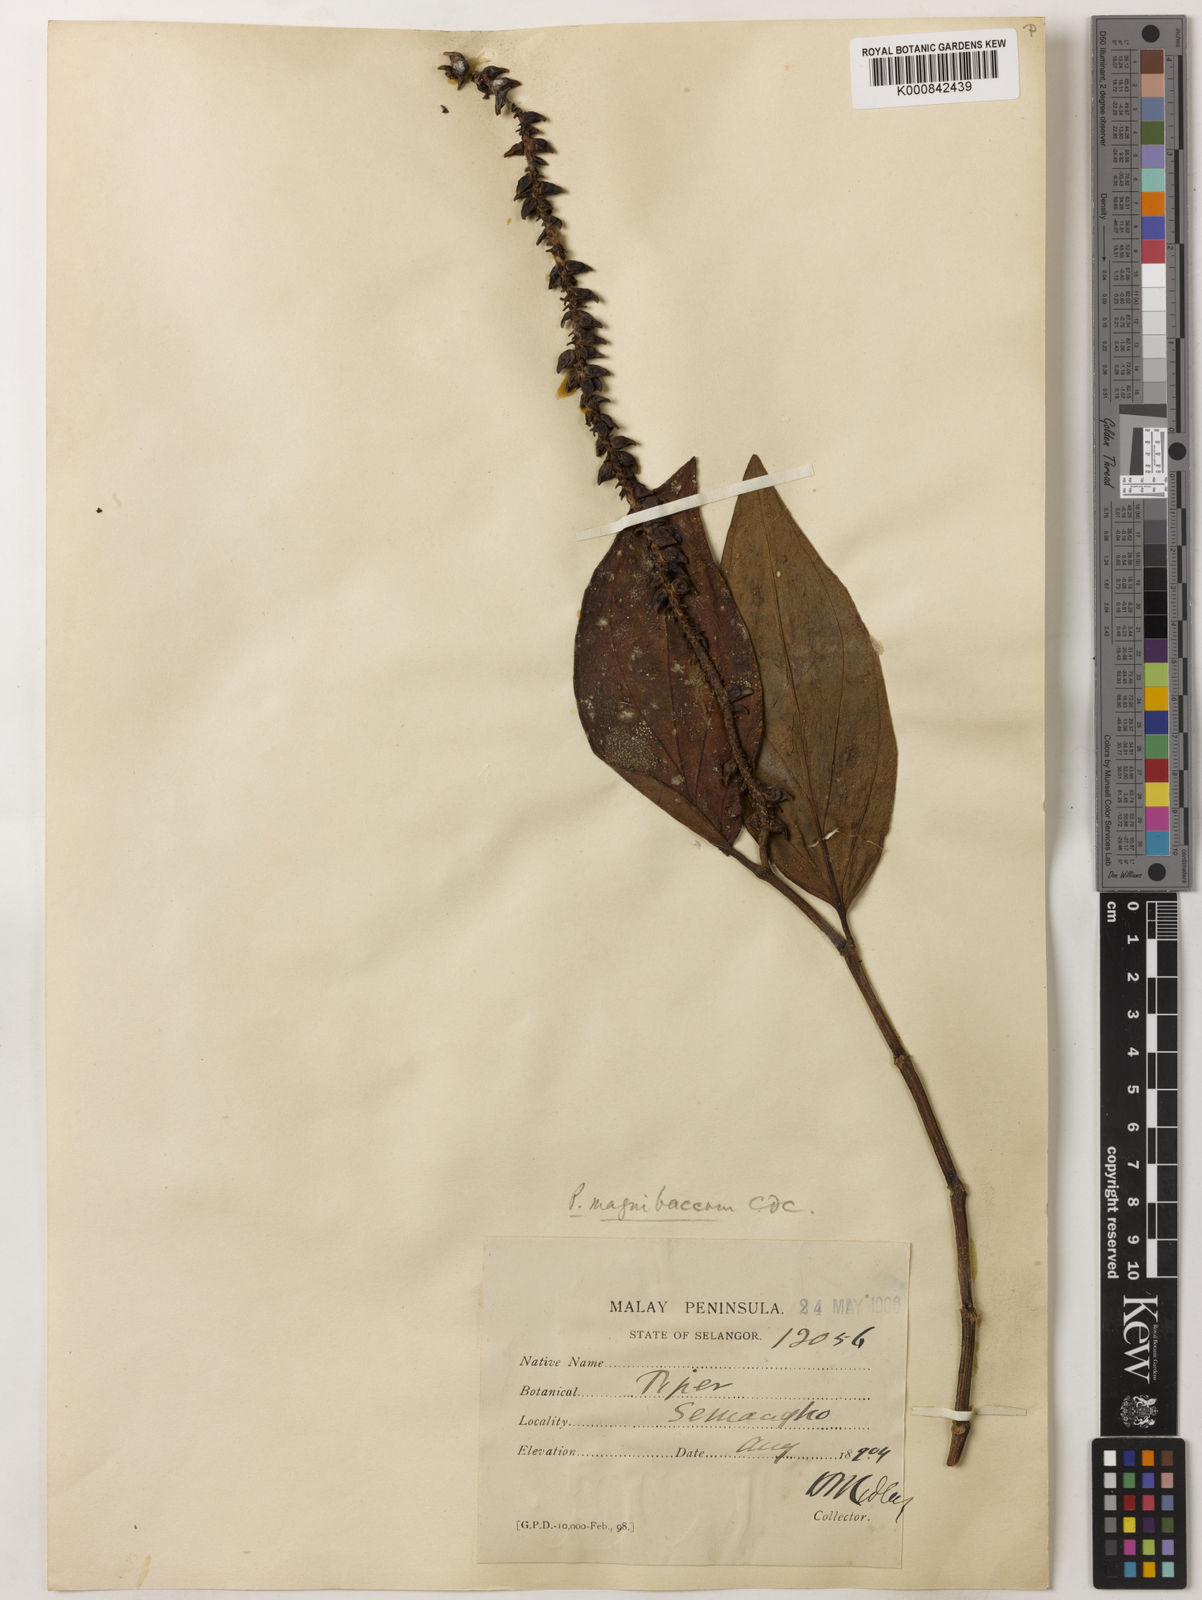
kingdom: Plantae
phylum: Tracheophyta
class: Magnoliopsida
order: Piperales
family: Piperaceae
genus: Piper
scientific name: Piper quinqueangulatum
